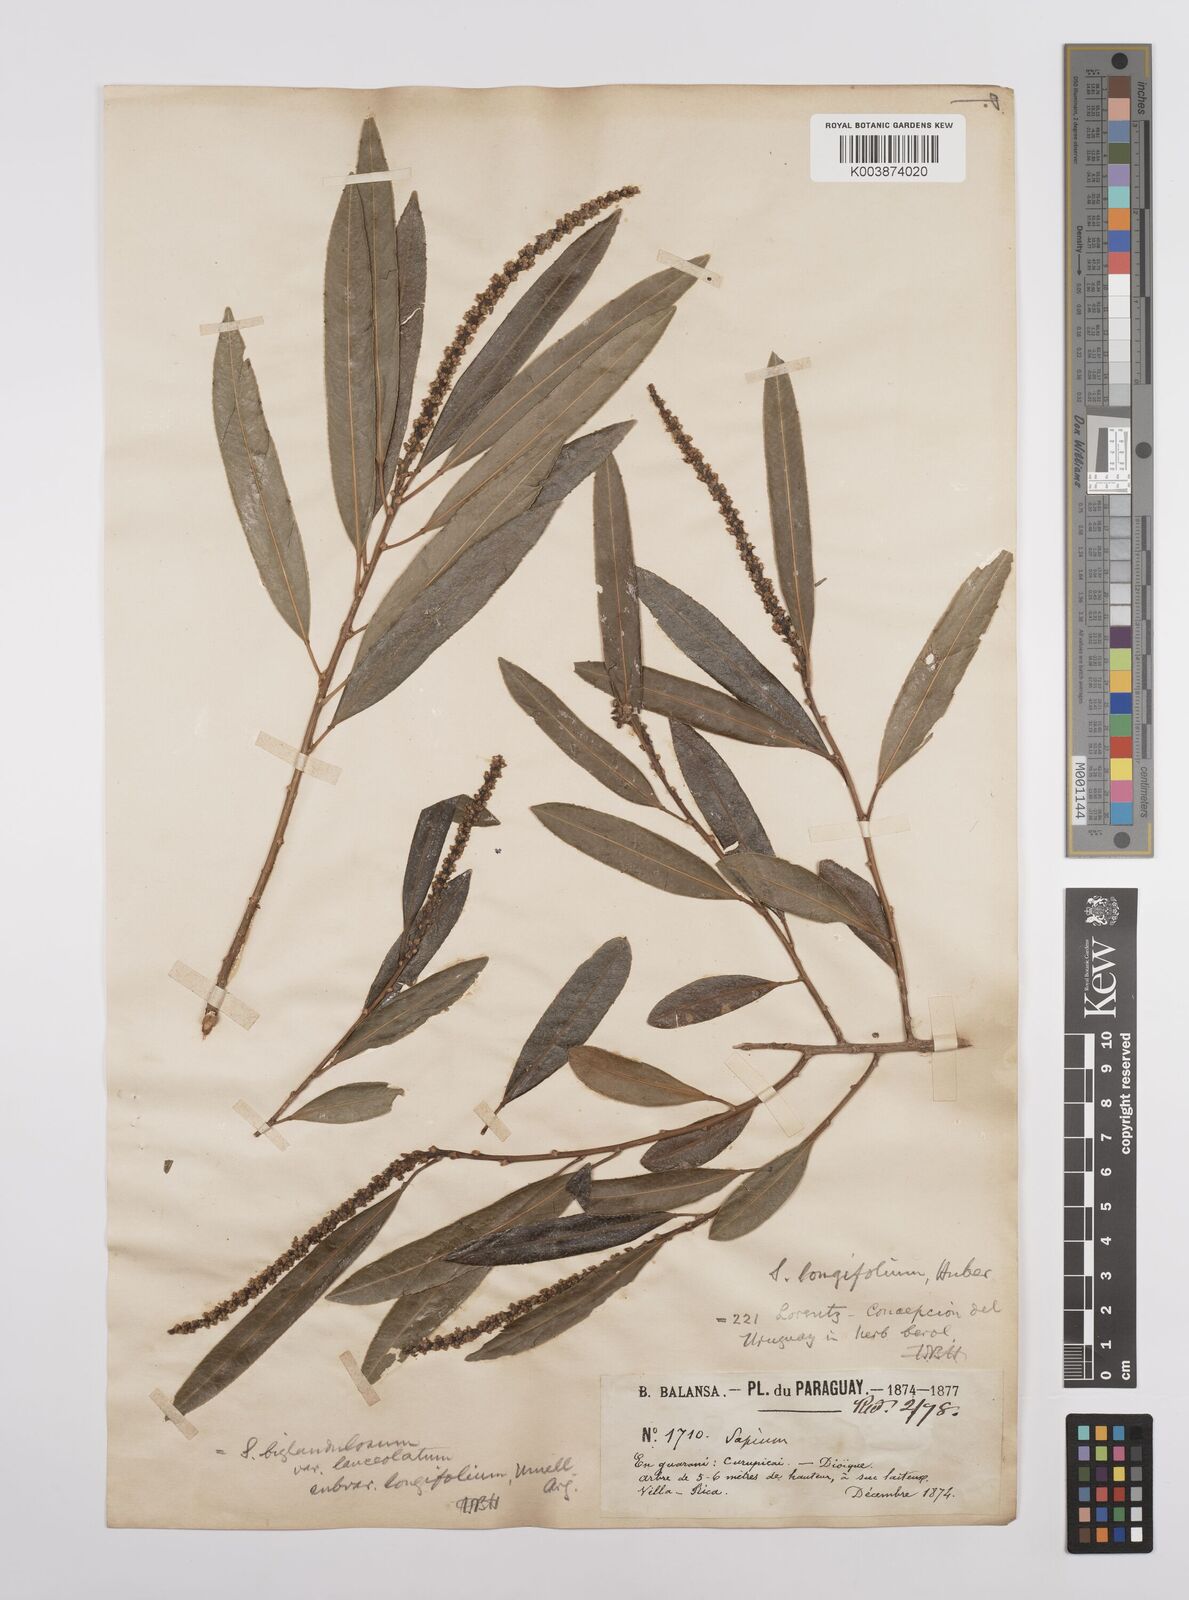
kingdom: Plantae
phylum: Tracheophyta
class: Magnoliopsida
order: Malpighiales
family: Euphorbiaceae
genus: Sapium
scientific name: Sapium haematospermum
